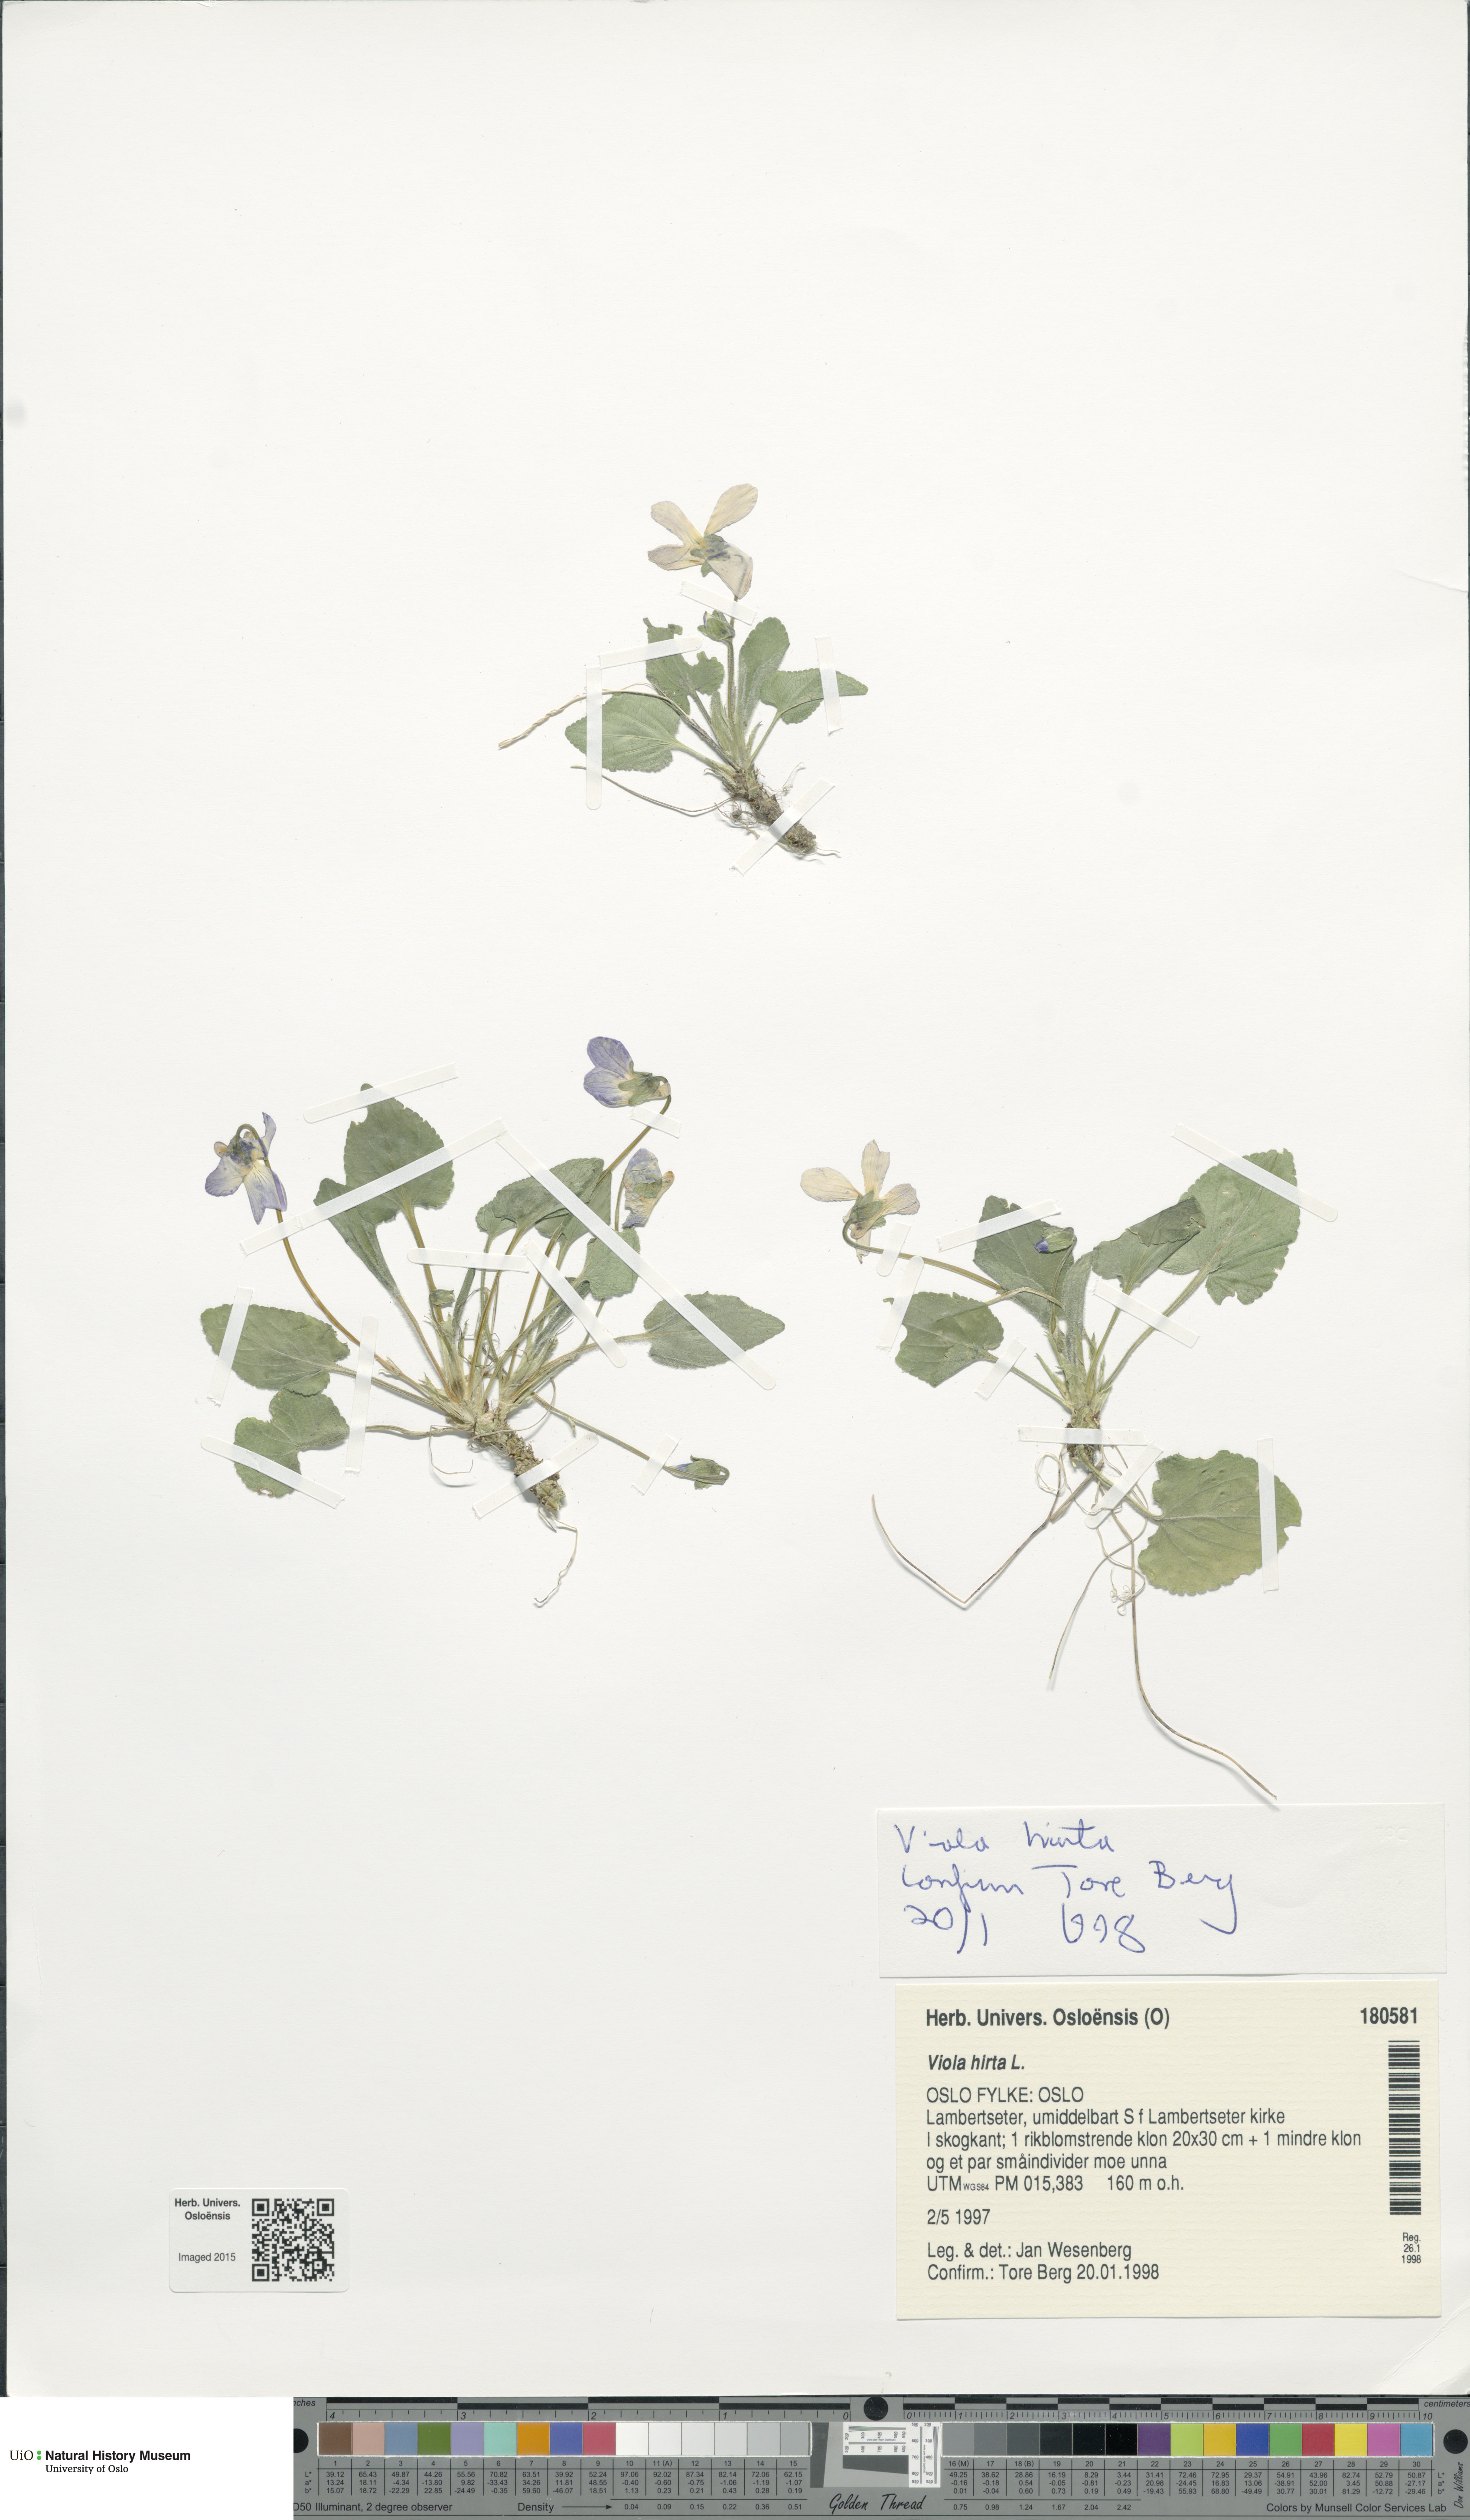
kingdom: Plantae
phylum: Tracheophyta
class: Magnoliopsida
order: Malpighiales
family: Violaceae
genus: Viola
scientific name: Viola hirta
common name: Hairy violet
